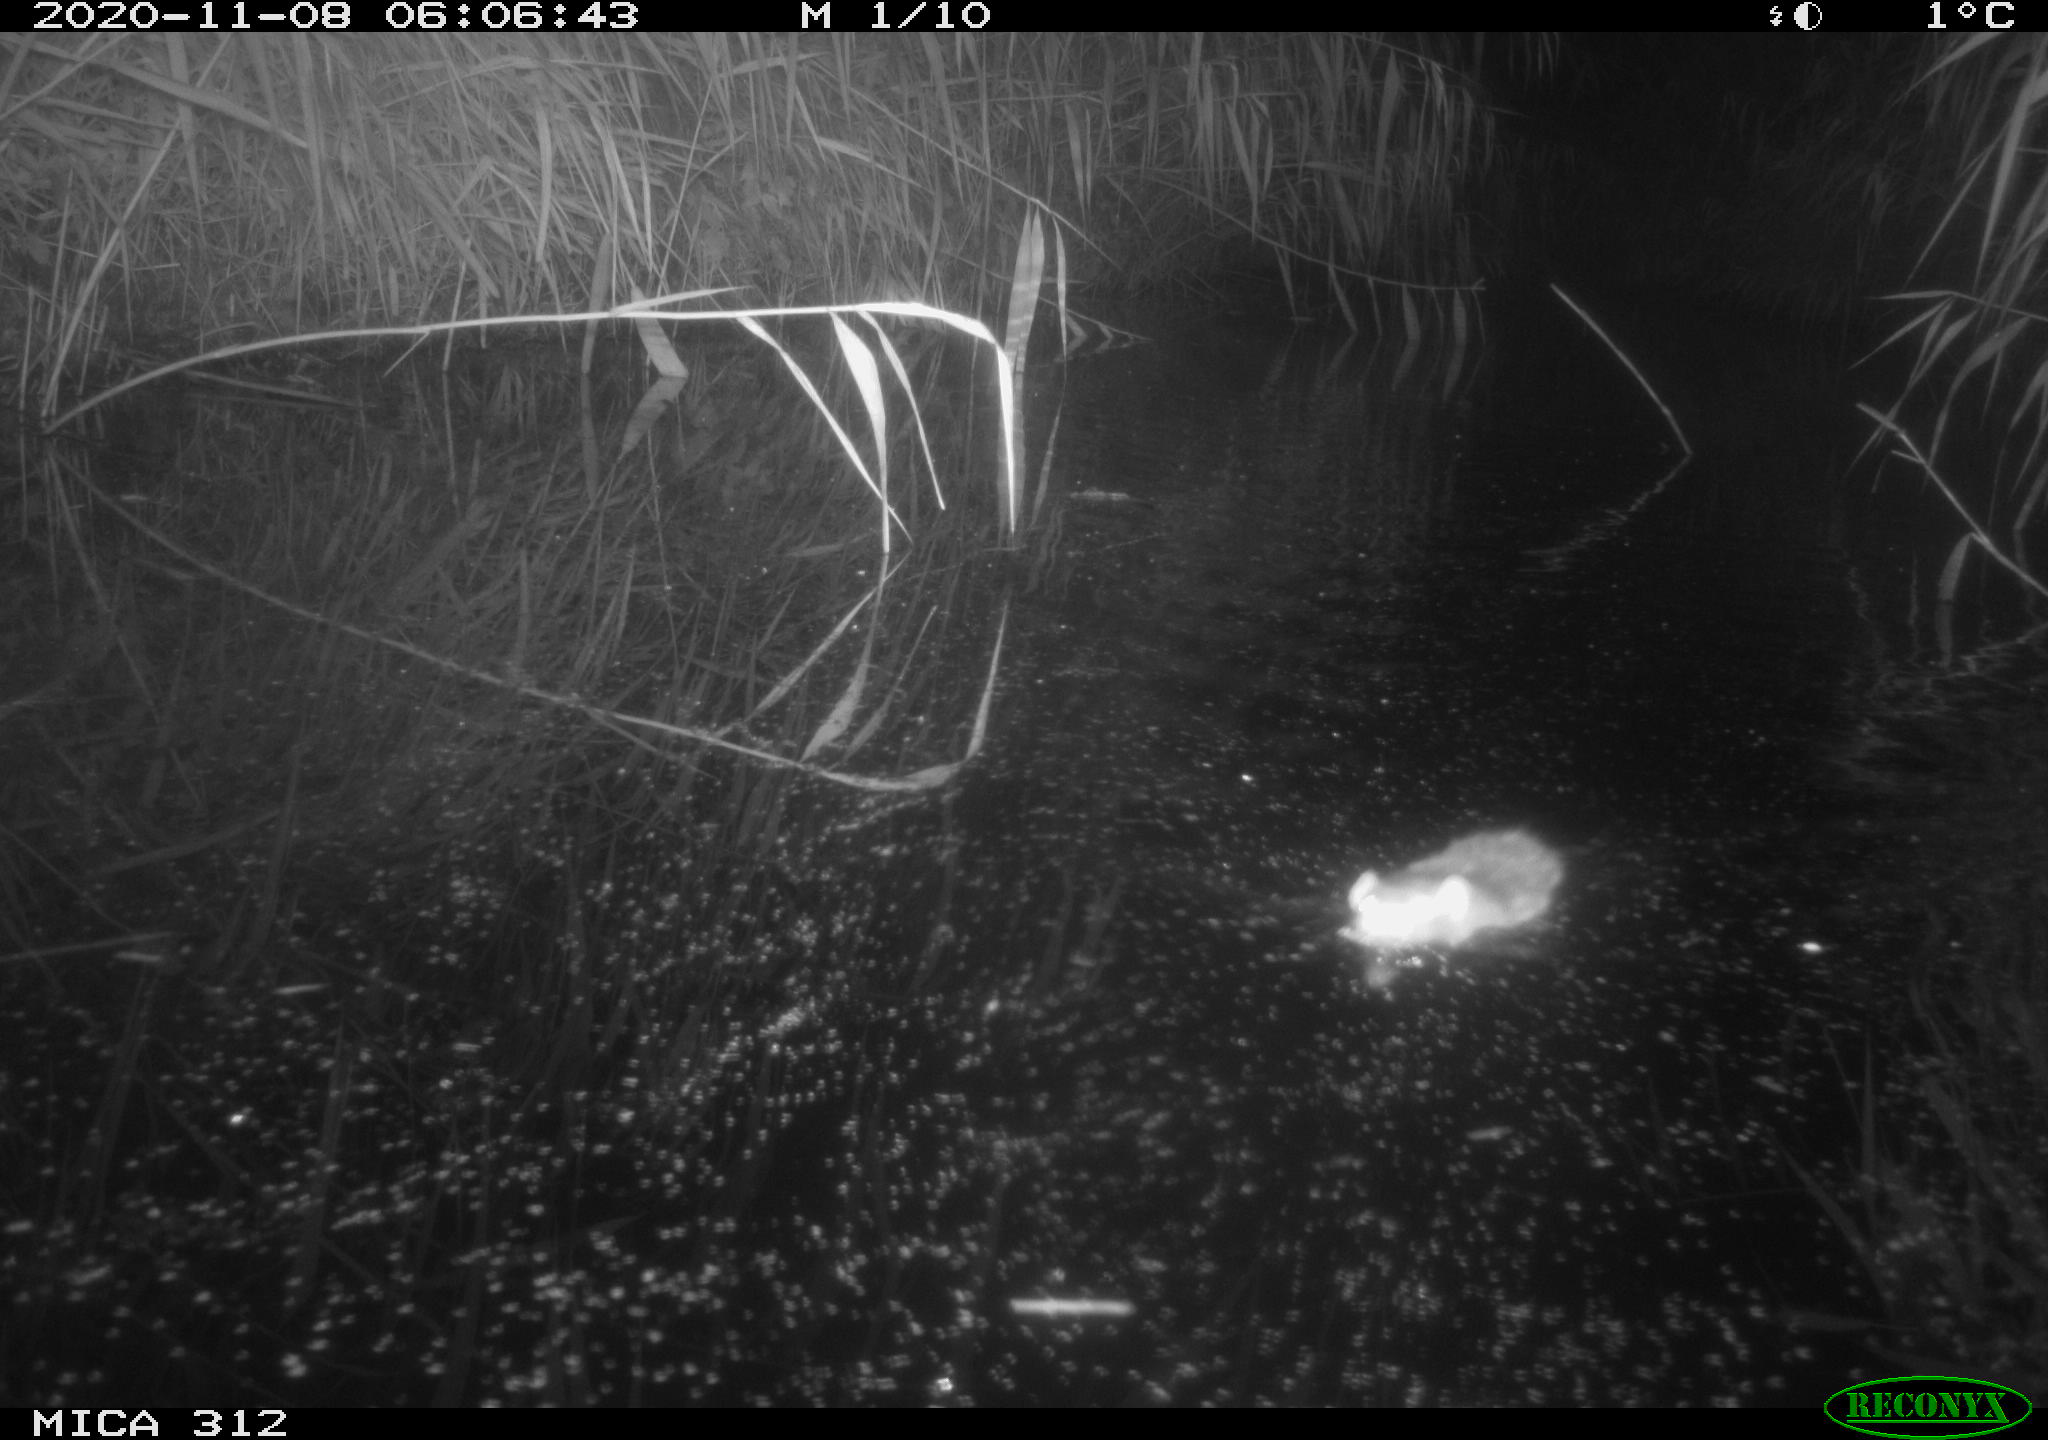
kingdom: Animalia
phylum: Chordata
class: Mammalia
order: Rodentia
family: Muridae
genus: Rattus
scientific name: Rattus norvegicus
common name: Brown rat
